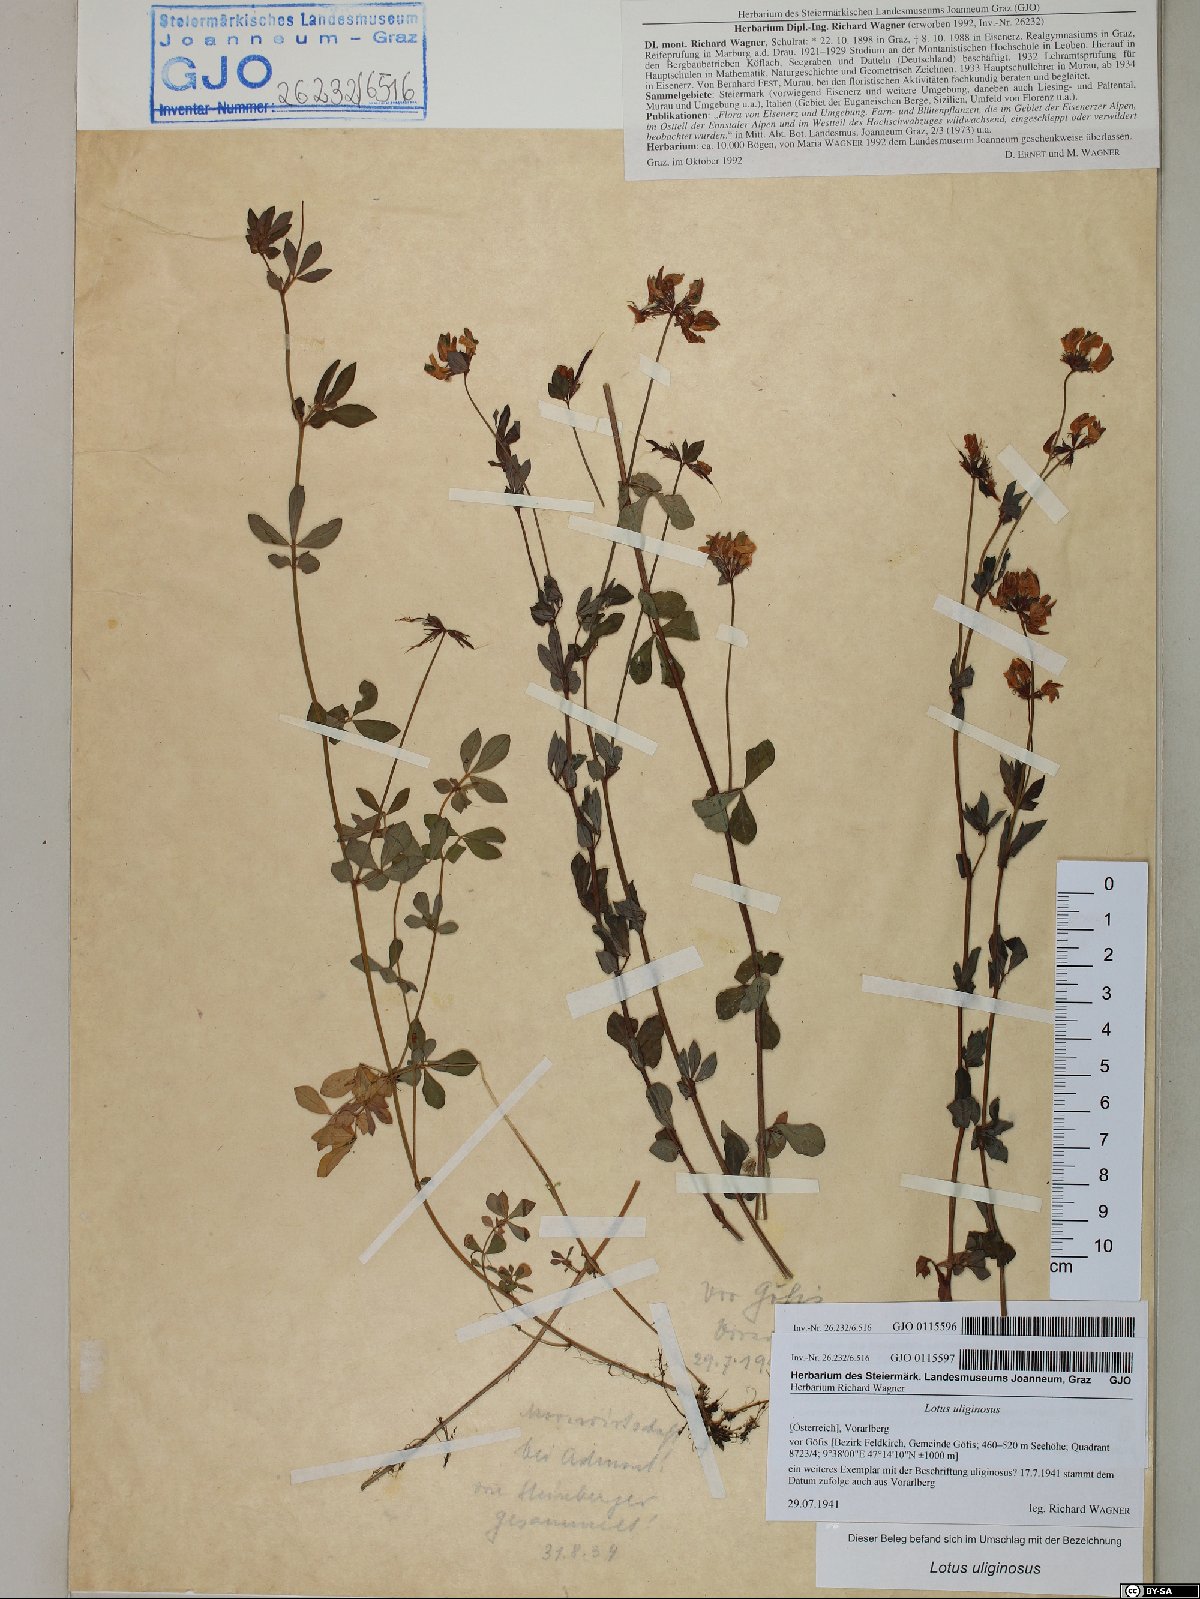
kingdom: Plantae
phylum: Tracheophyta
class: Magnoliopsida
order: Fabales
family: Fabaceae
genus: Lotus
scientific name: Lotus pedunculatus
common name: Greater birdsfoot-trefoil
